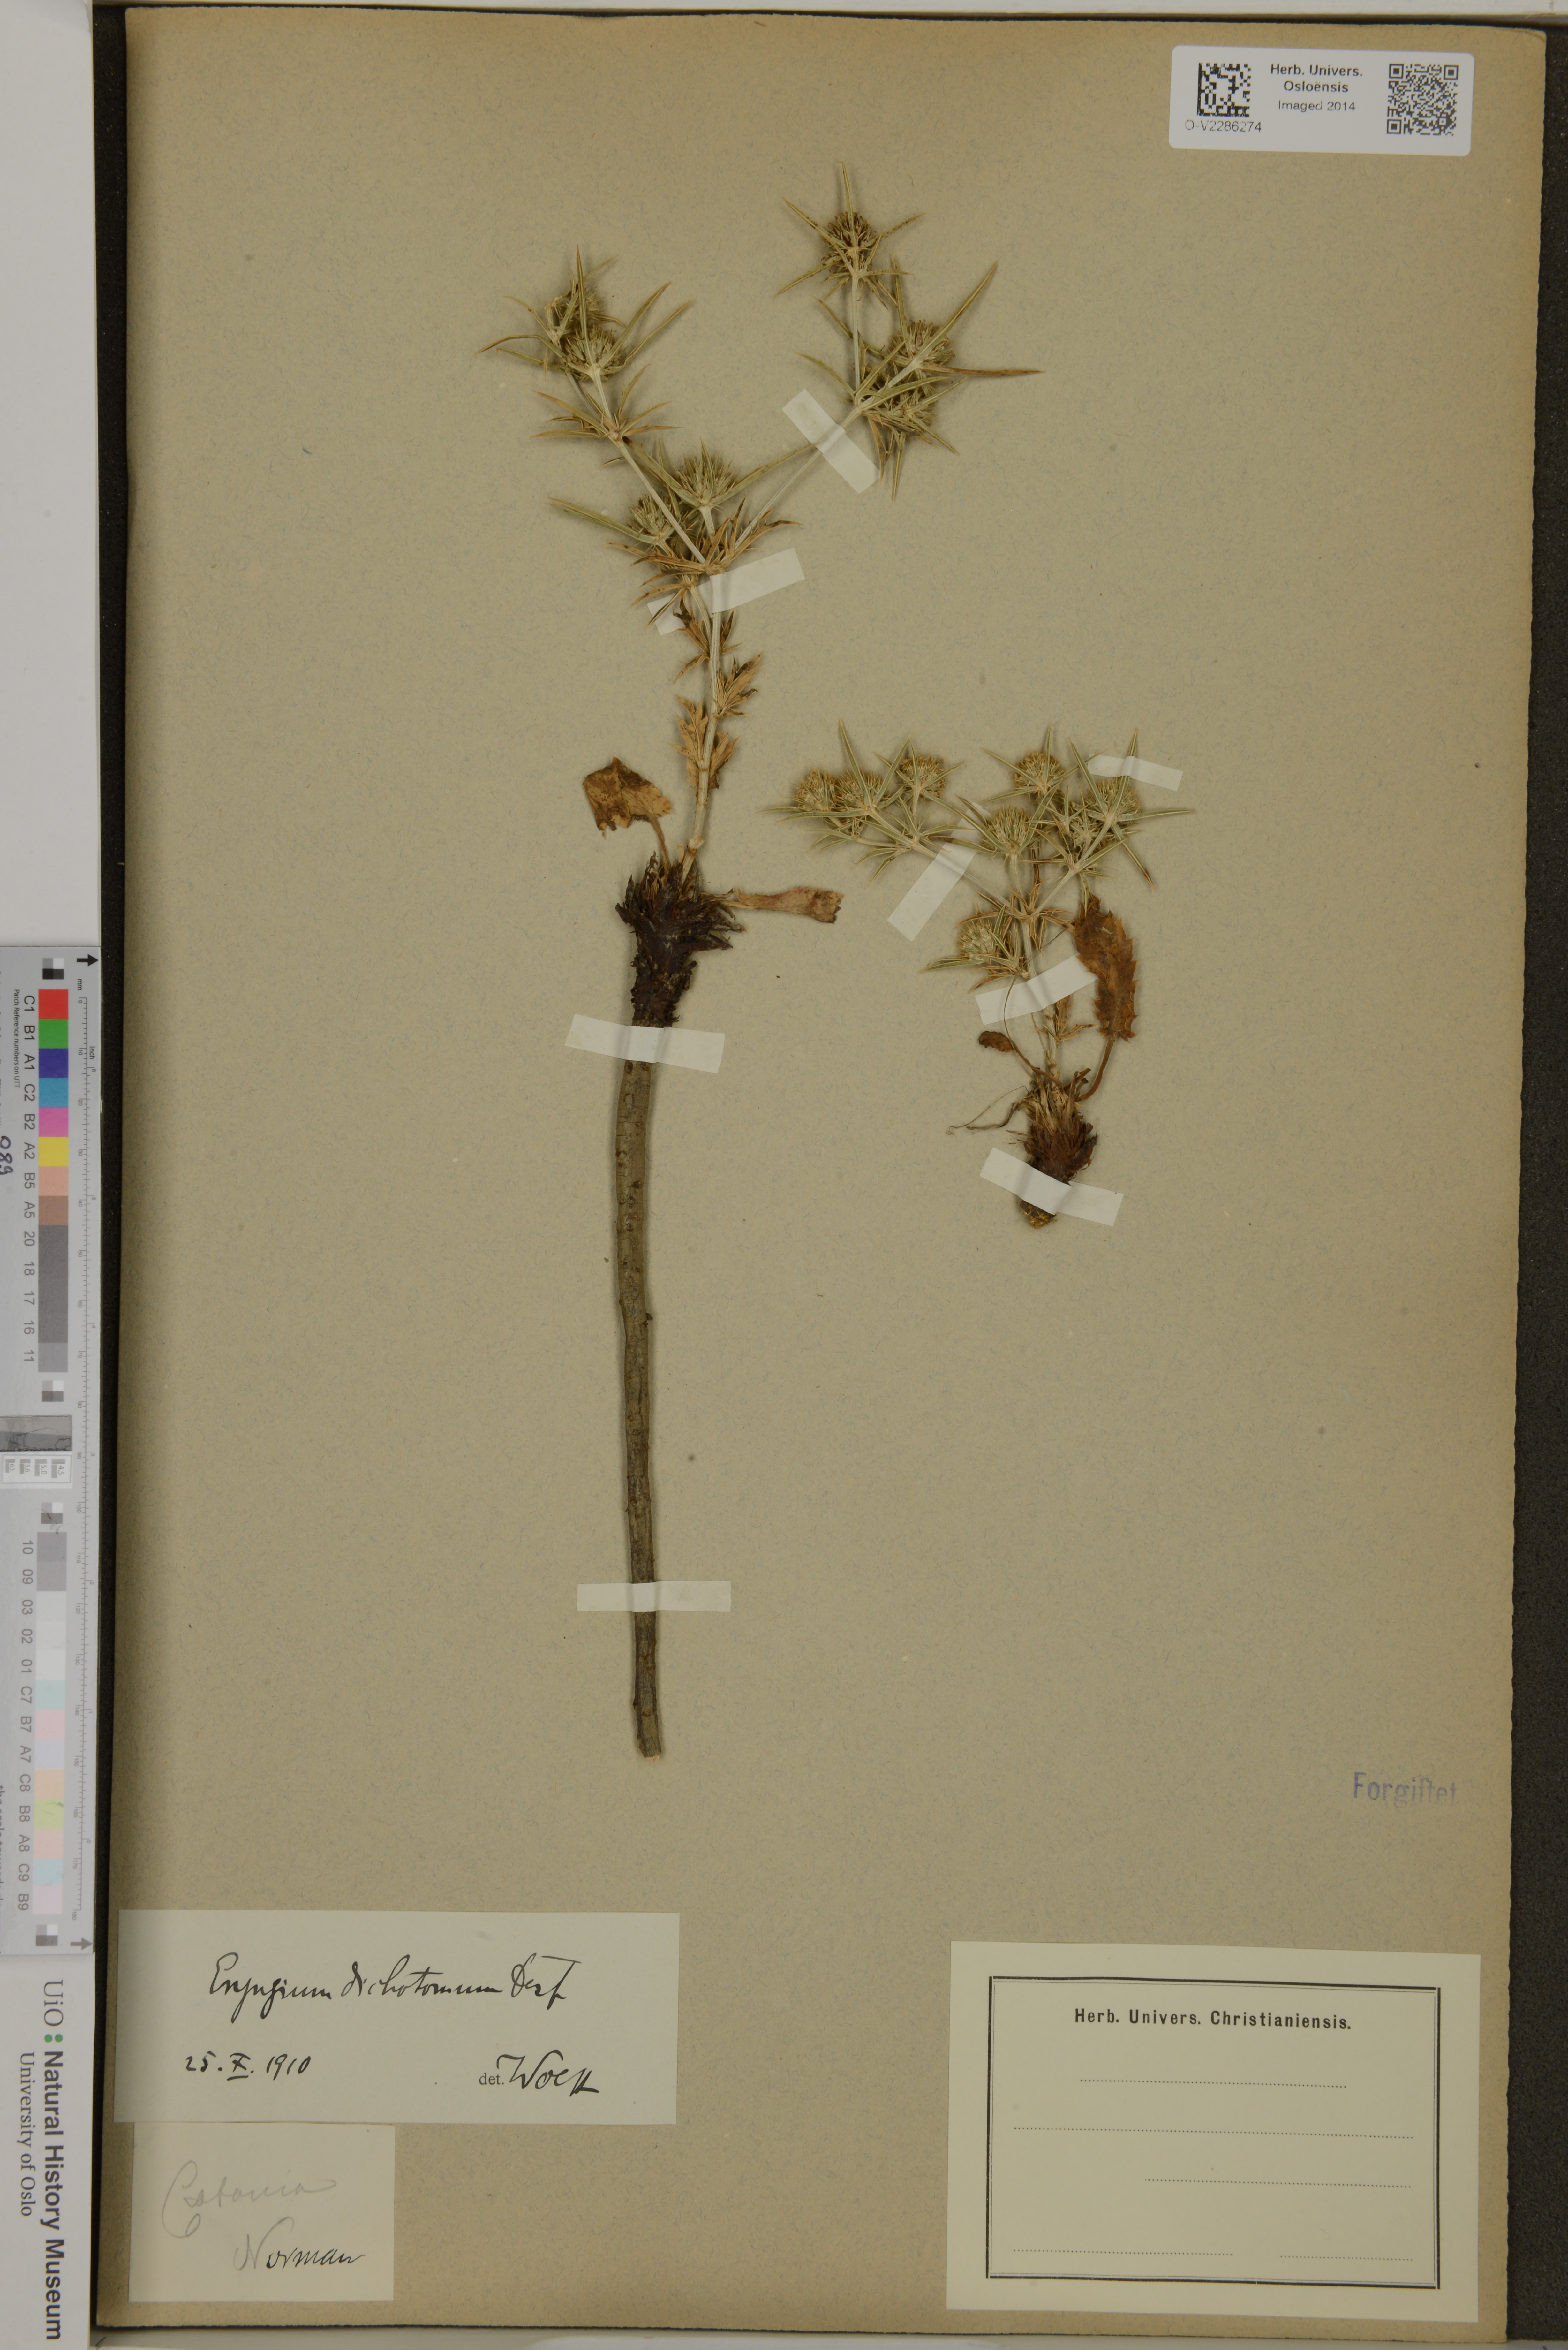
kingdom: Plantae
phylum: Tracheophyta
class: Magnoliopsida
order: Apiales
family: Apiaceae
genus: Eryngium
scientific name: Eryngium dichotomum
